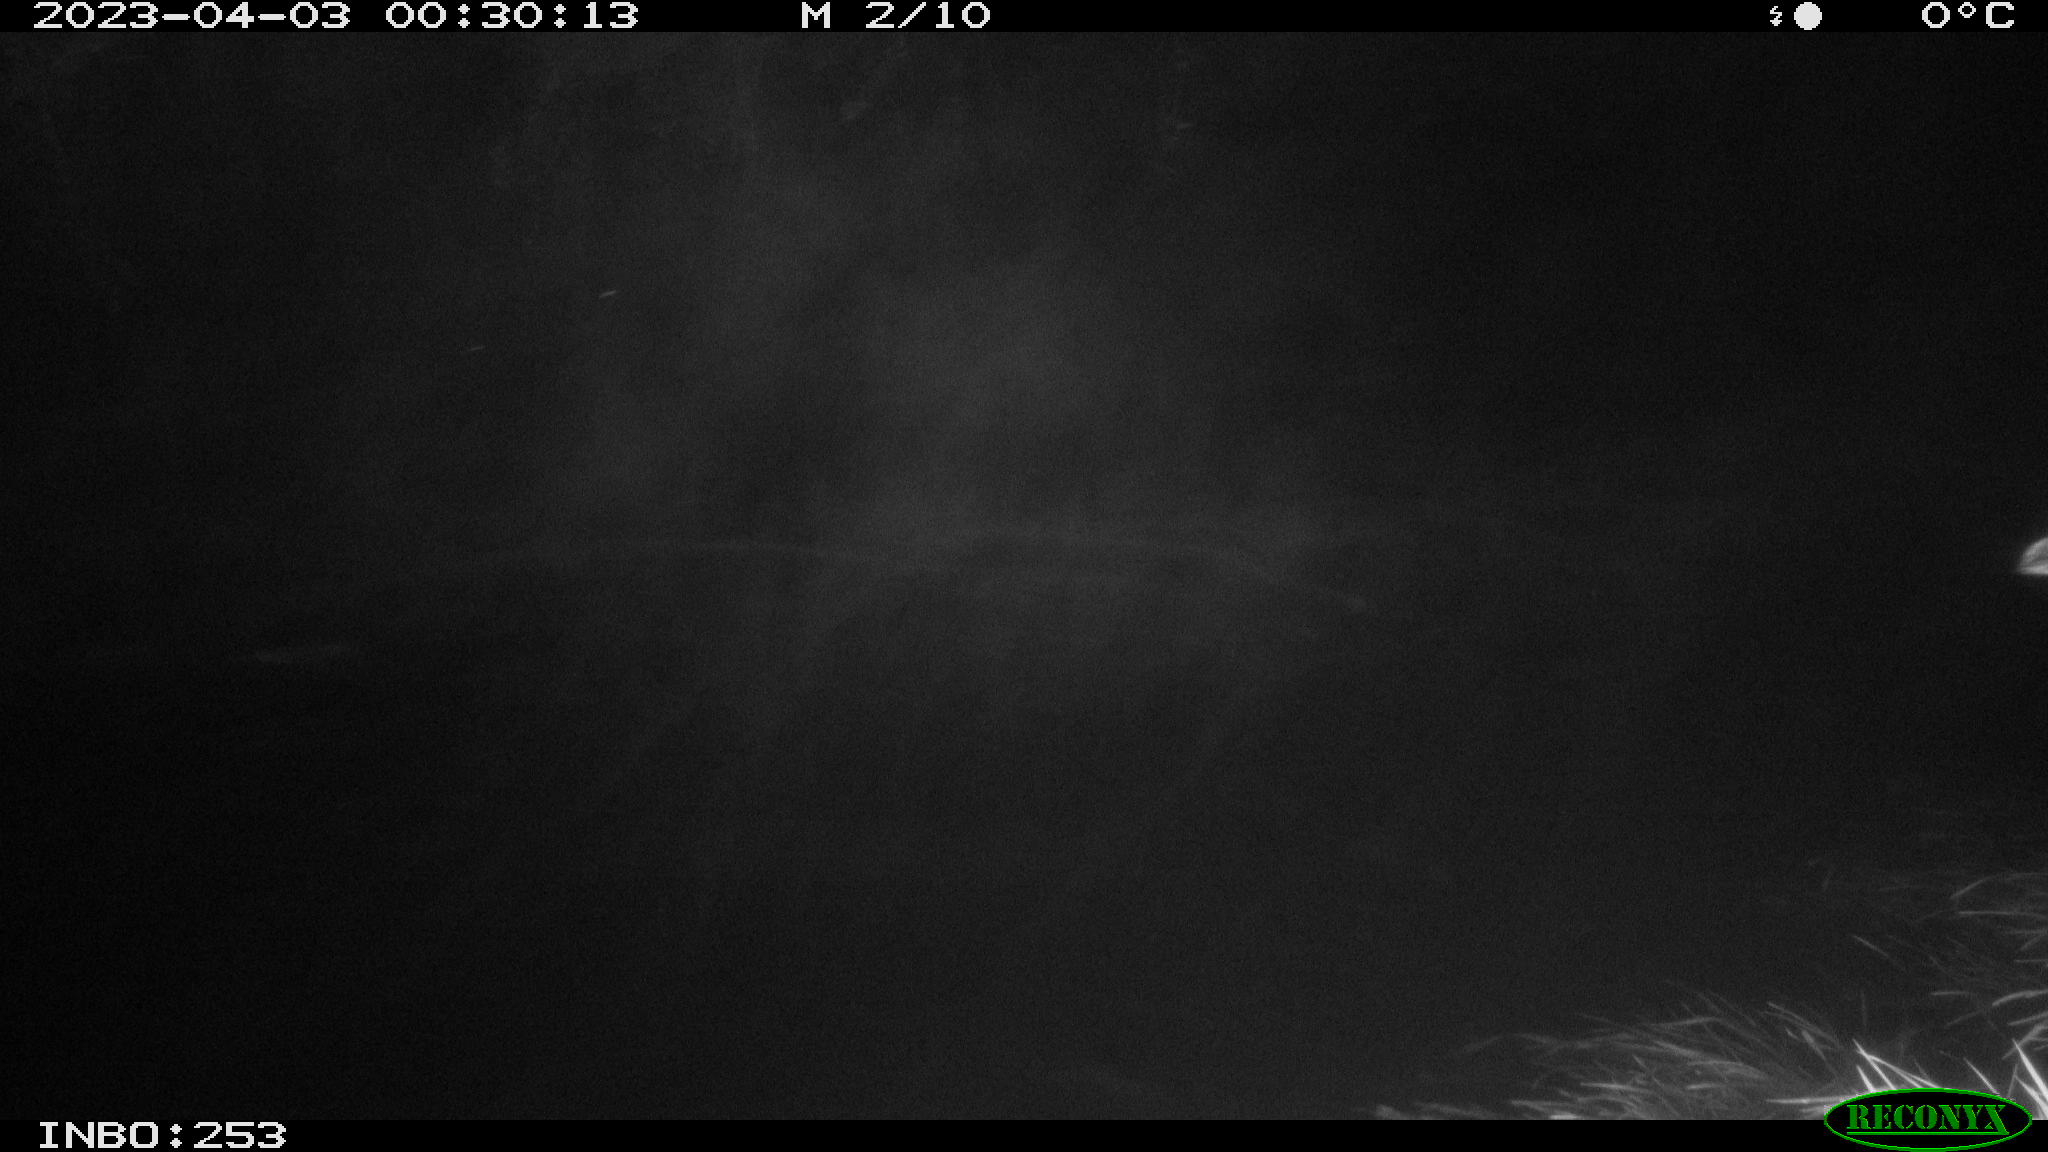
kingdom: Animalia
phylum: Chordata
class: Aves
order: Anseriformes
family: Anatidae
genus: Anas
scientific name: Anas platyrhynchos
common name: Mallard
